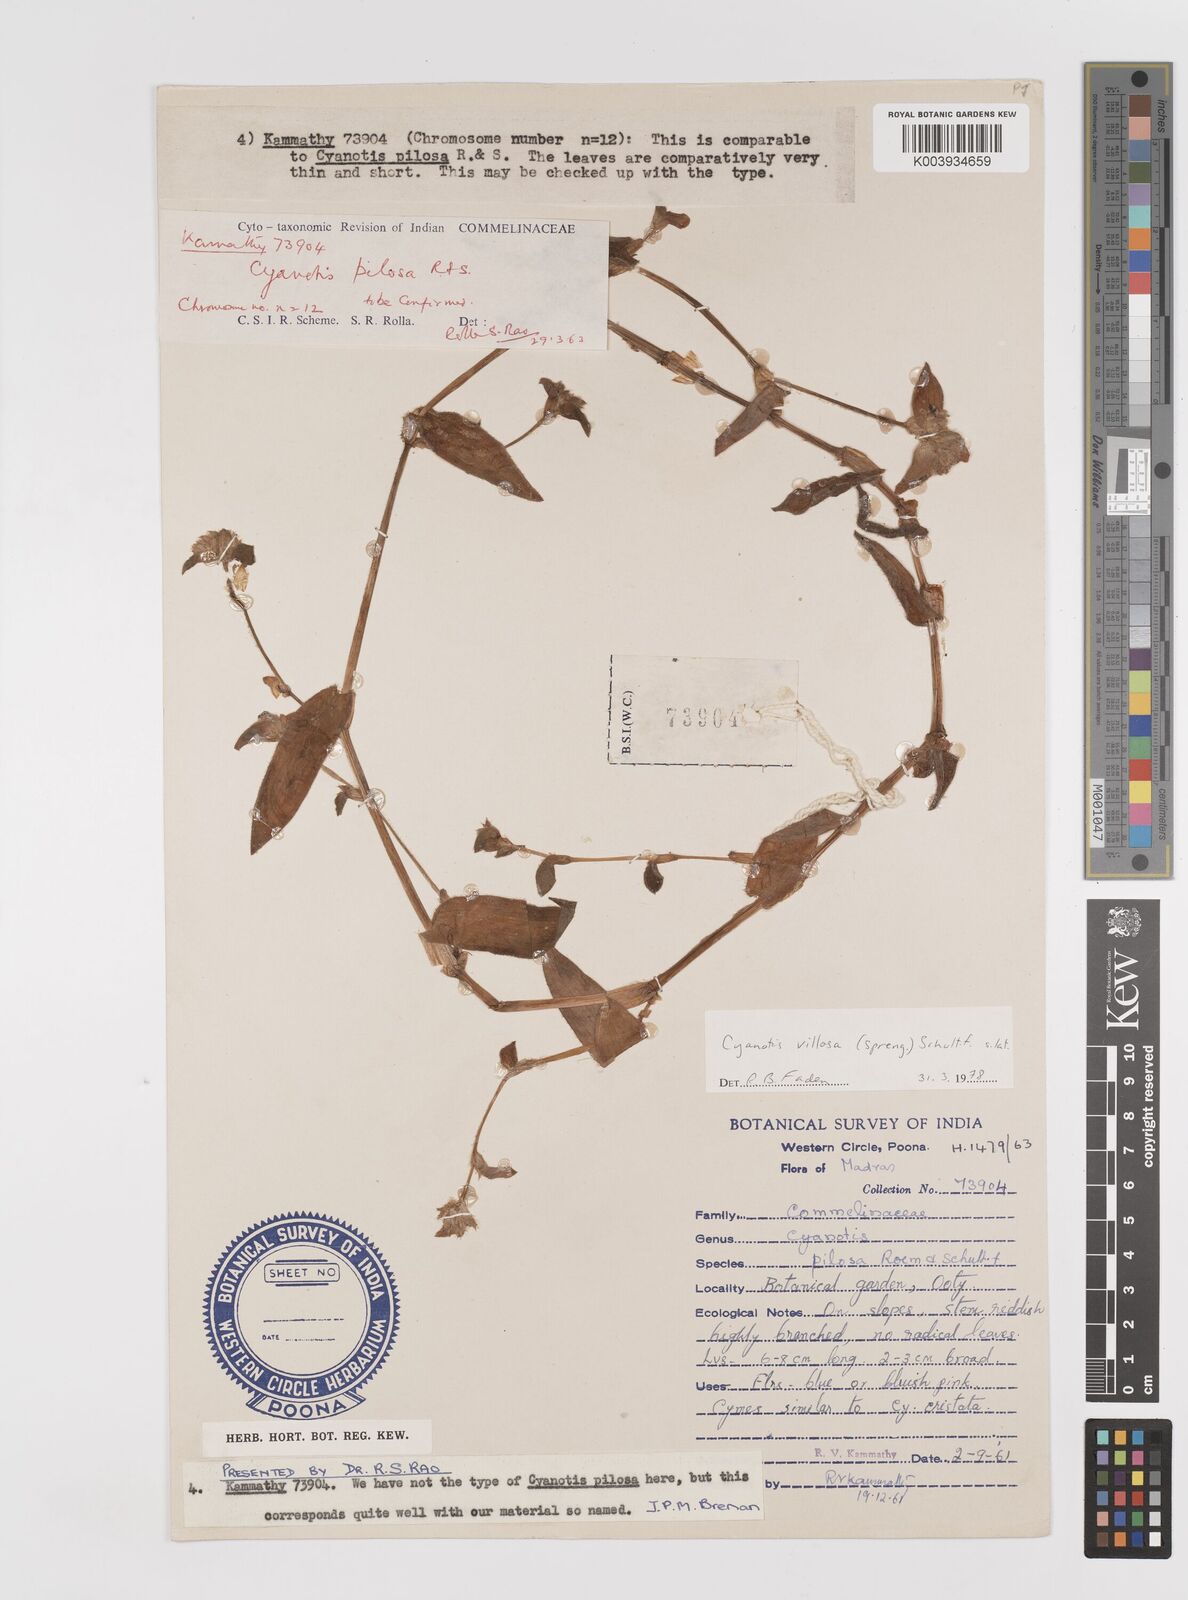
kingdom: Plantae
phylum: Tracheophyta
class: Liliopsida
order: Commelinales
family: Commelinaceae
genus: Cyanotis
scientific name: Cyanotis villosa
